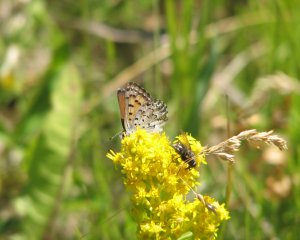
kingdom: Animalia
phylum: Arthropoda
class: Insecta
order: Lepidoptera
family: Lycaenidae
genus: Lycaena
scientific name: Lycaena mariposa
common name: Mariposa Copper
